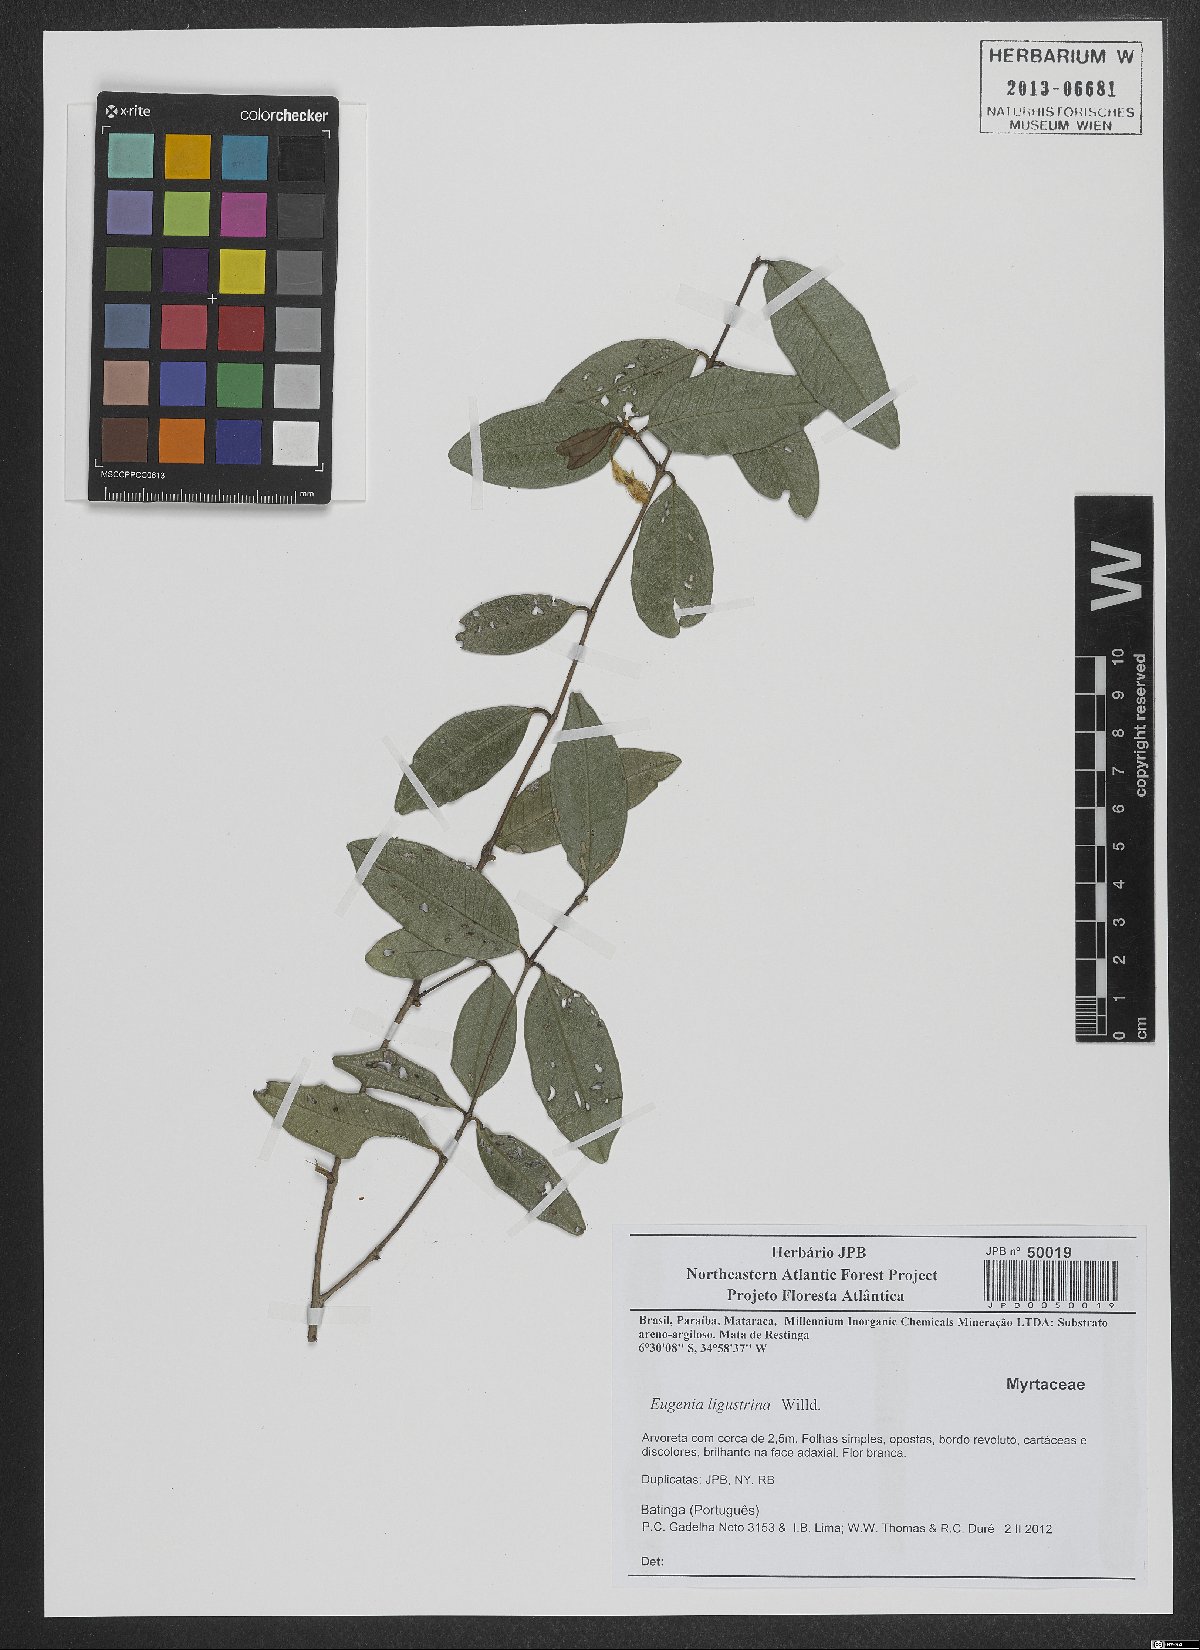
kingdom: Plantae
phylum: Tracheophyta
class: Magnoliopsida
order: Myrtales
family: Myrtaceae
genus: Eugenia
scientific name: Eugenia ligustrina
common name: Privet stopper
